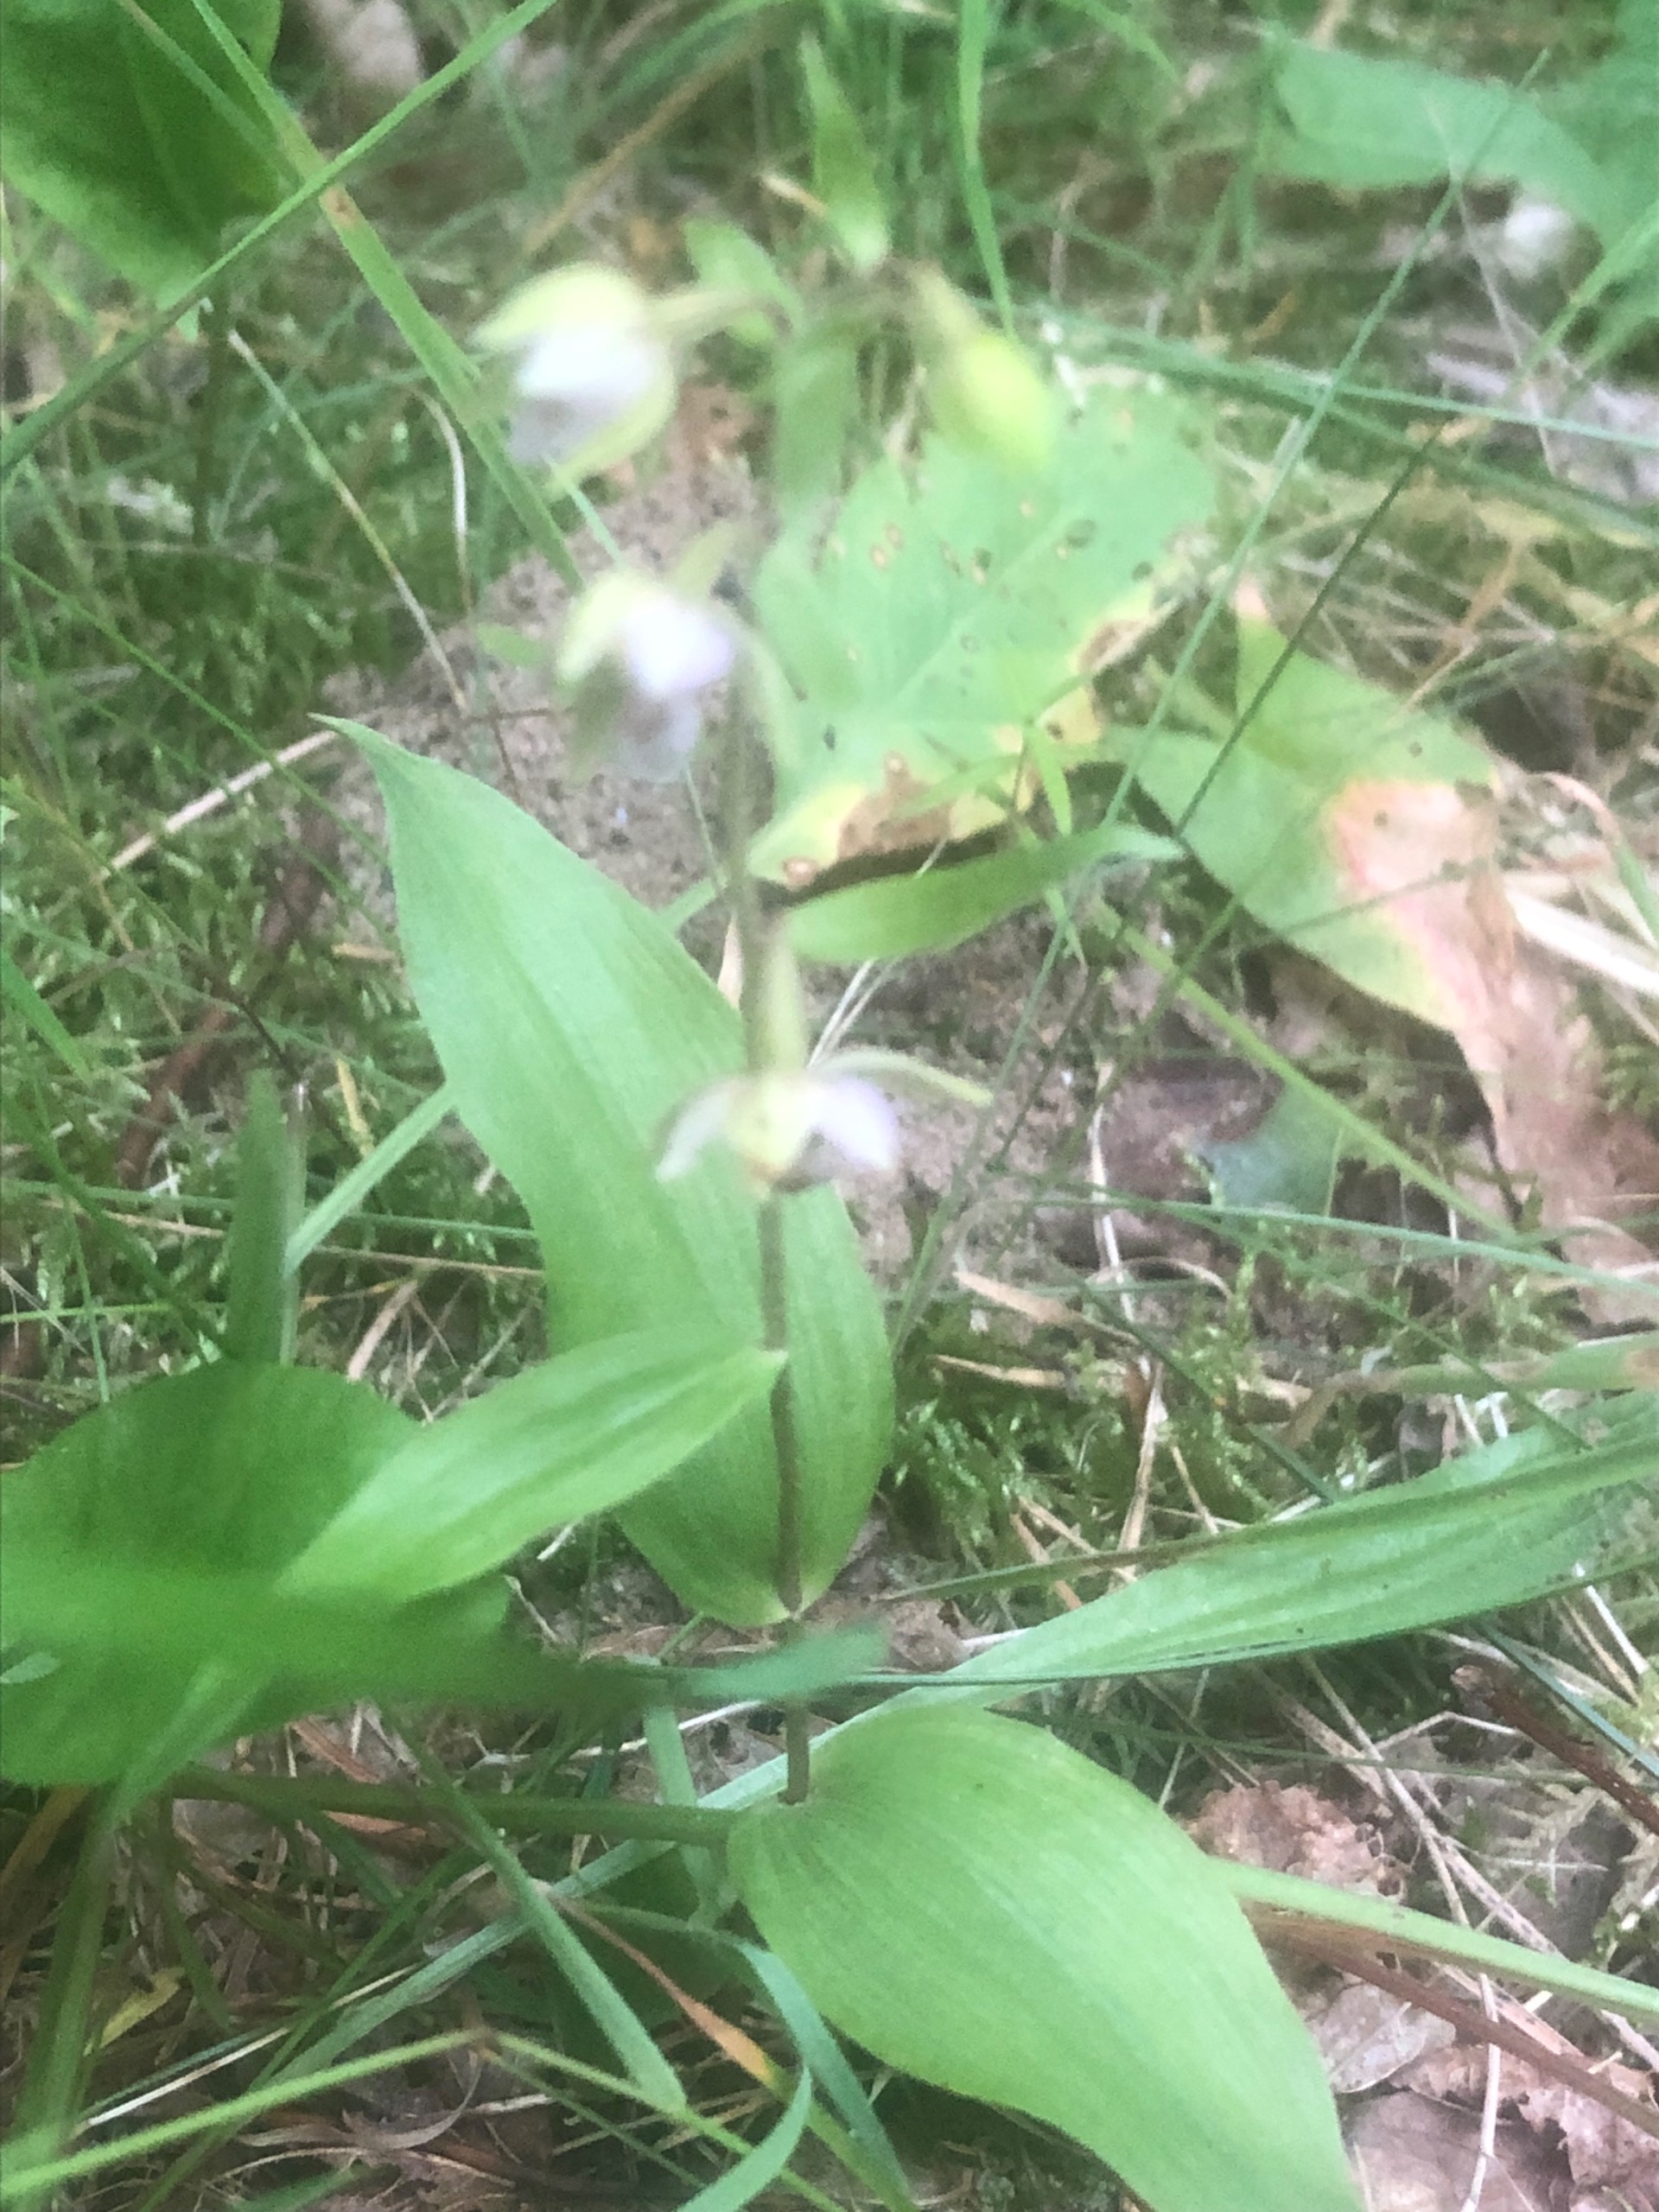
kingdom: Plantae
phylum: Tracheophyta
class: Liliopsida
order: Asparagales
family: Orchidaceae
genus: Epipactis
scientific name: Epipactis helleborine
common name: Skov-hullæbe
